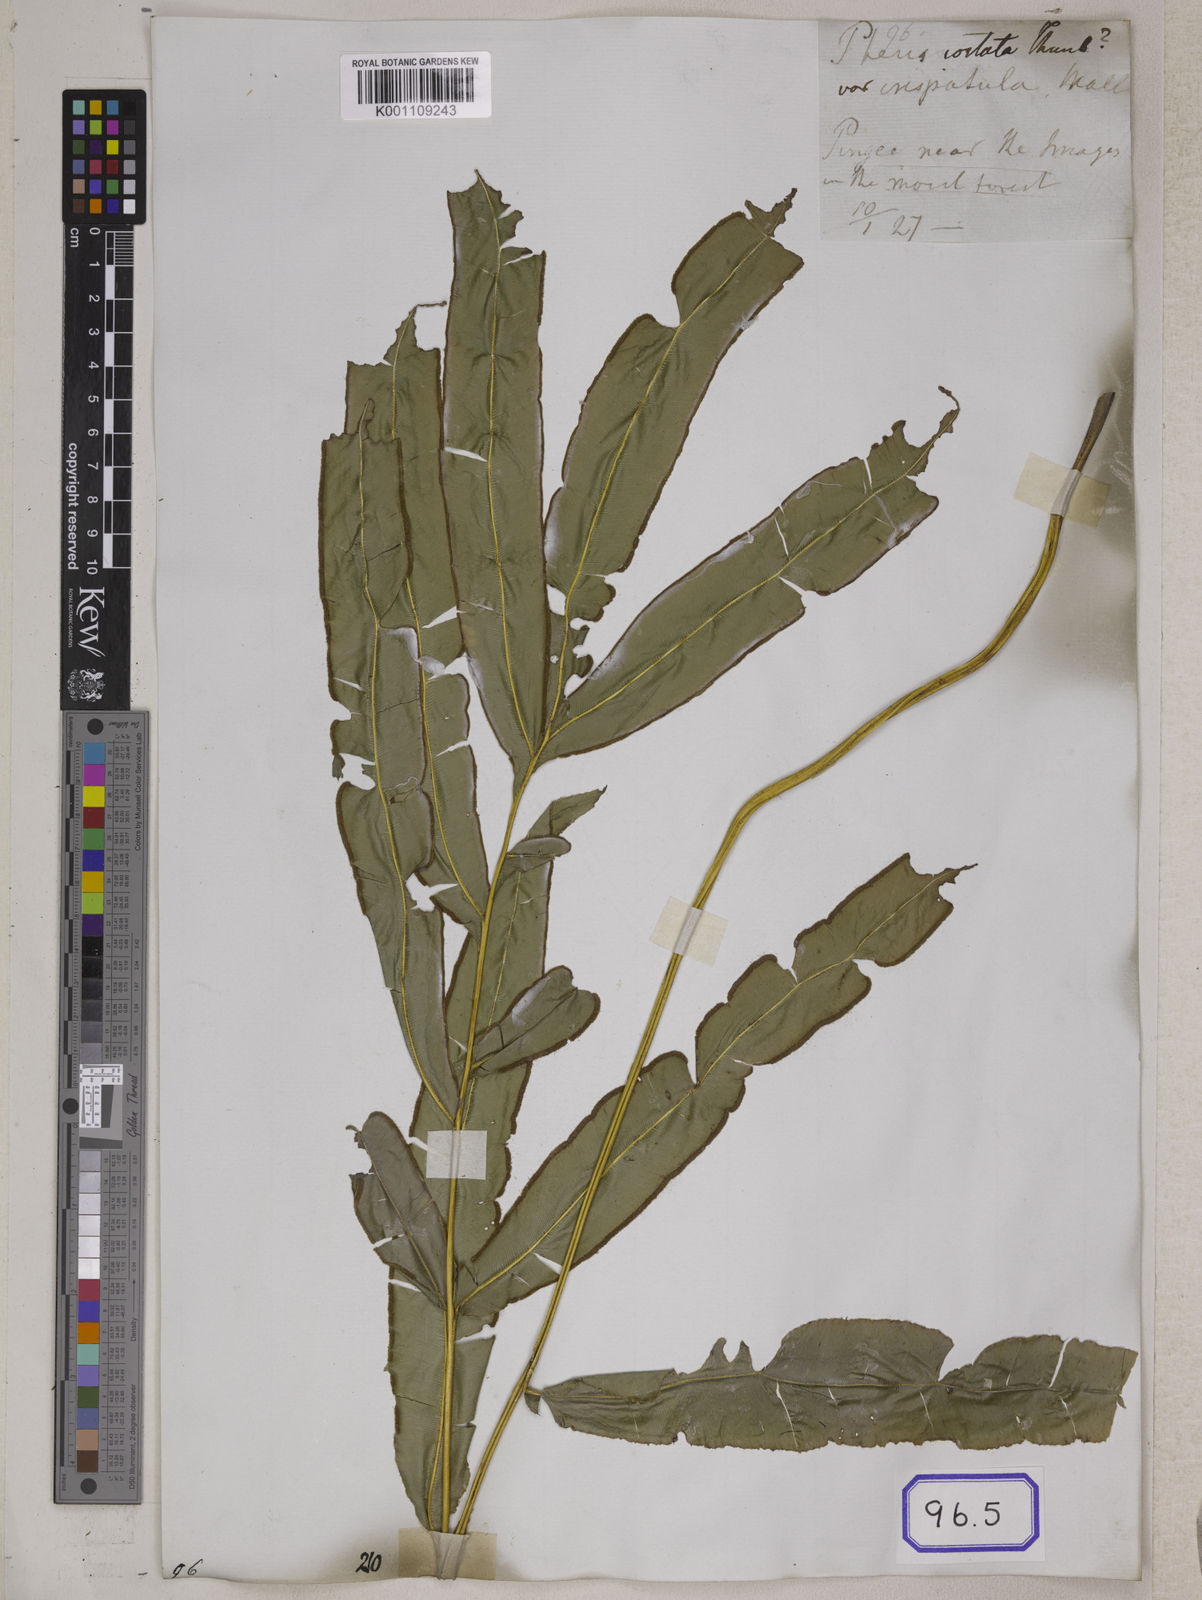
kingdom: Plantae
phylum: Tracheophyta
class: Polypodiopsida
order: Polypodiales
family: Pteridaceae
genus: Pteris
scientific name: Pteris cretica
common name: Ribbon fern
